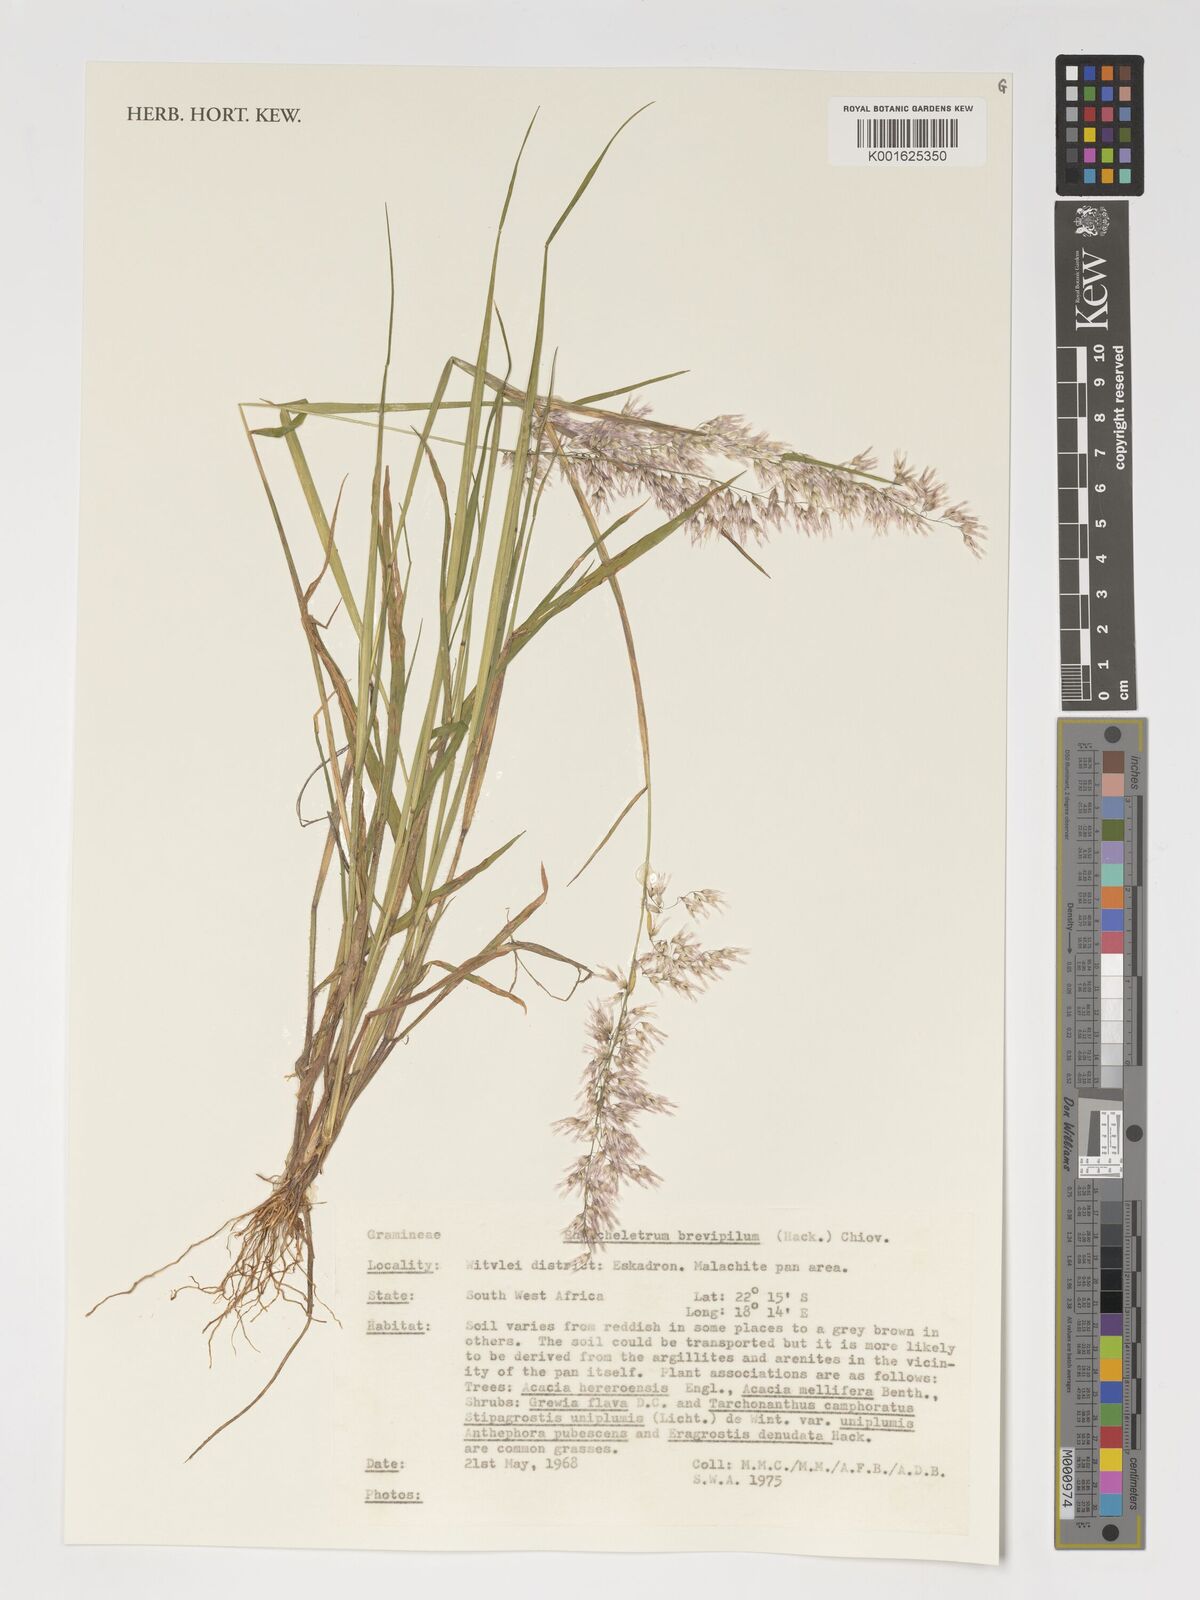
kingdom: Plantae
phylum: Tracheophyta
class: Liliopsida
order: Poales
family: Poaceae
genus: Melinis
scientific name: Melinis
